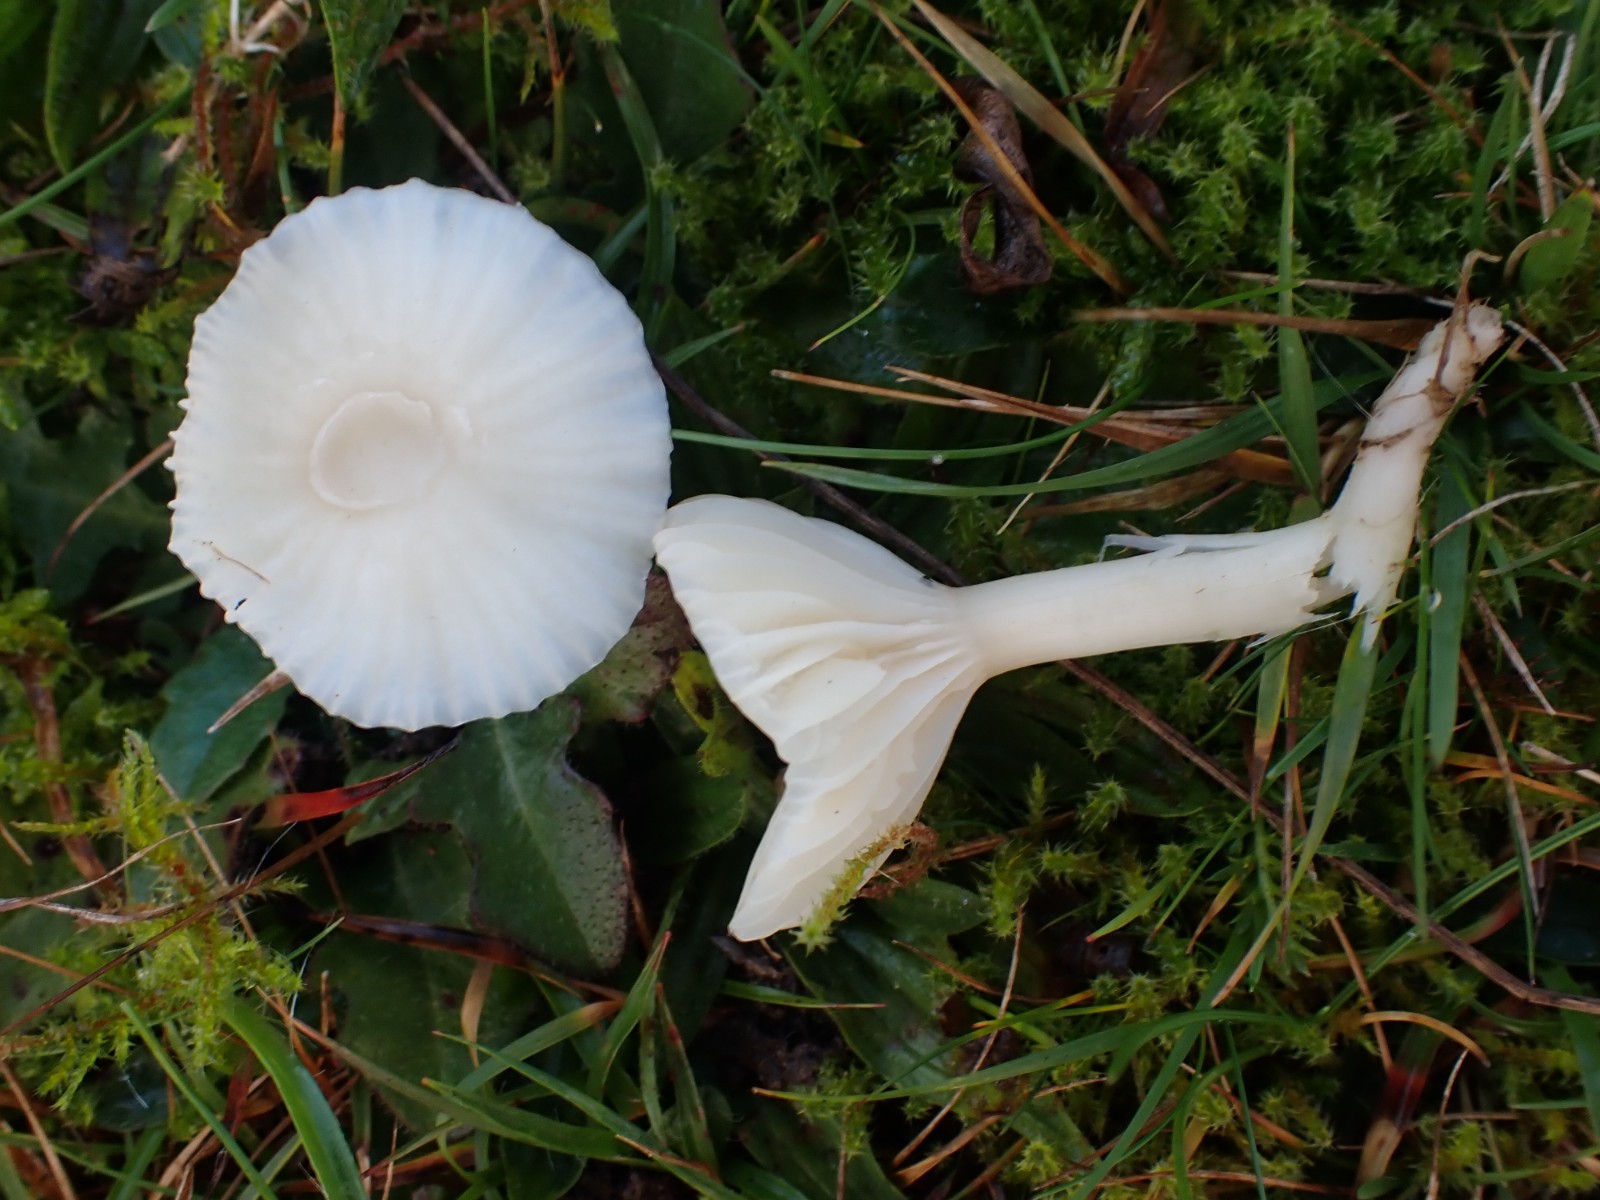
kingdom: Fungi
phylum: Basidiomycota
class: Agaricomycetes
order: Agaricales
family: Hygrophoraceae
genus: Cuphophyllus
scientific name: Cuphophyllus virgineus
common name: snehvid vokshat
